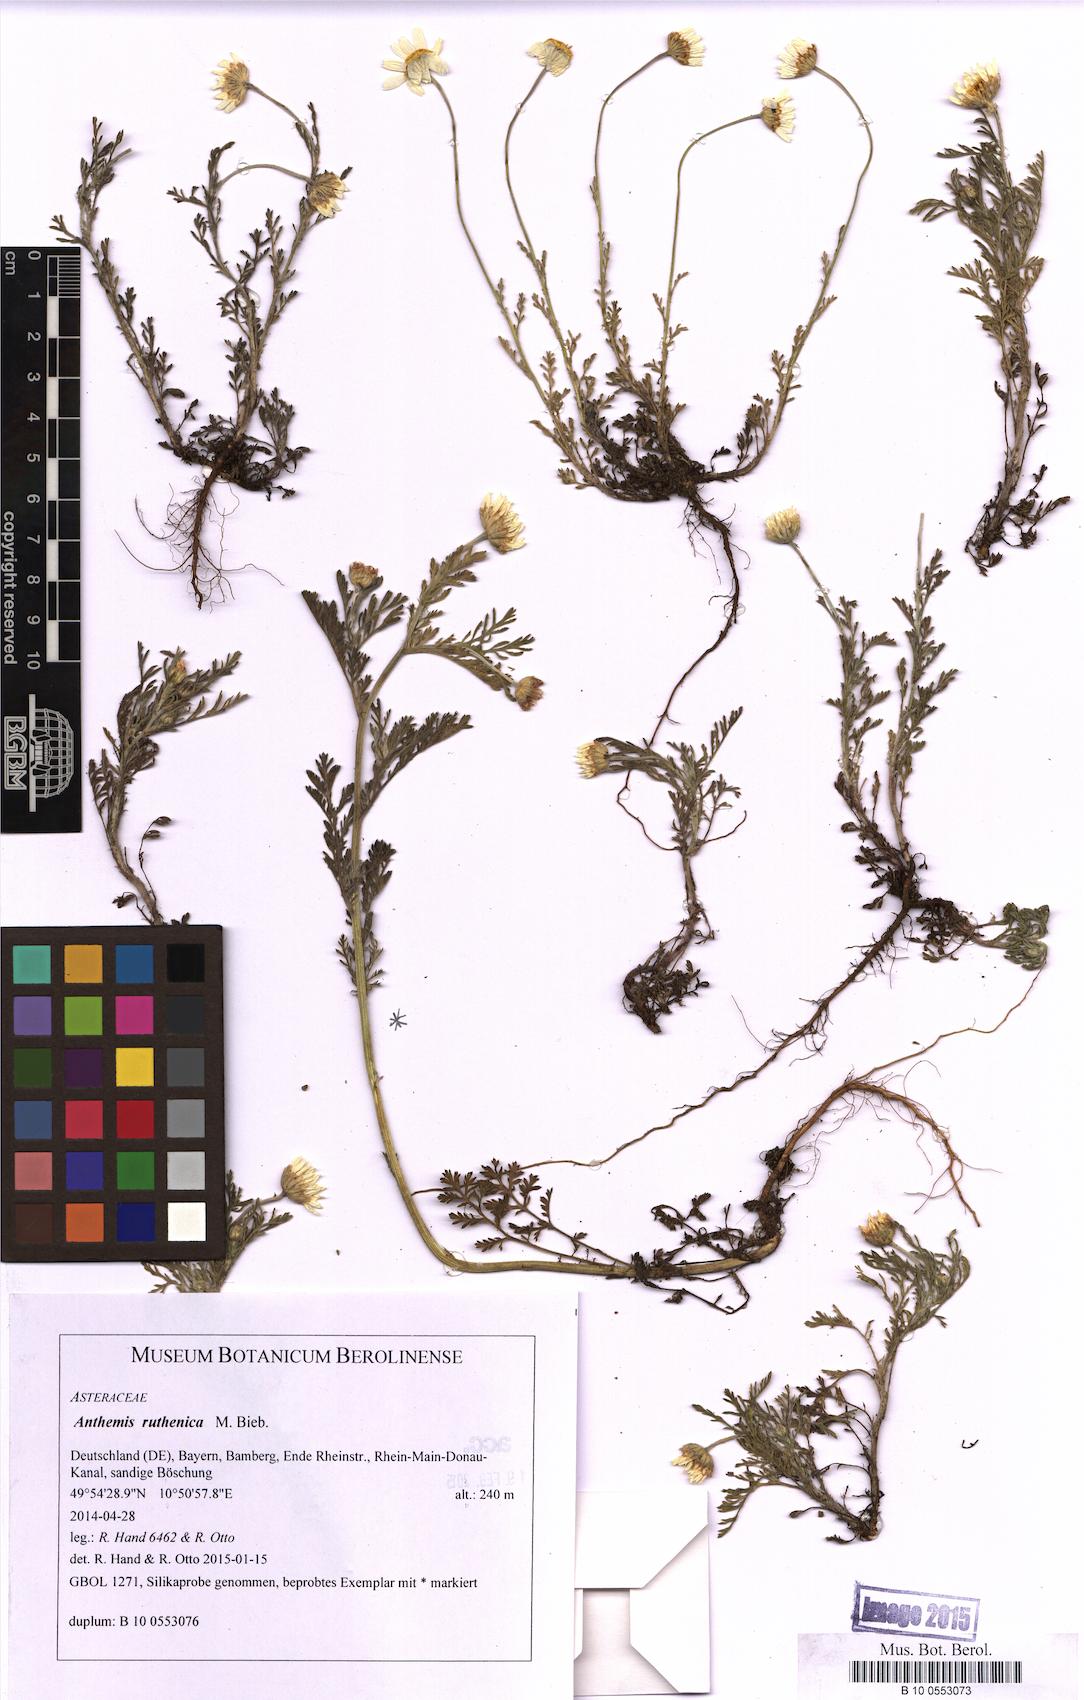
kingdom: Plantae
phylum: Tracheophyta
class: Magnoliopsida
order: Asterales
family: Asteraceae
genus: Anthemis
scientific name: Anthemis ruthenica
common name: Eastern chamomile
